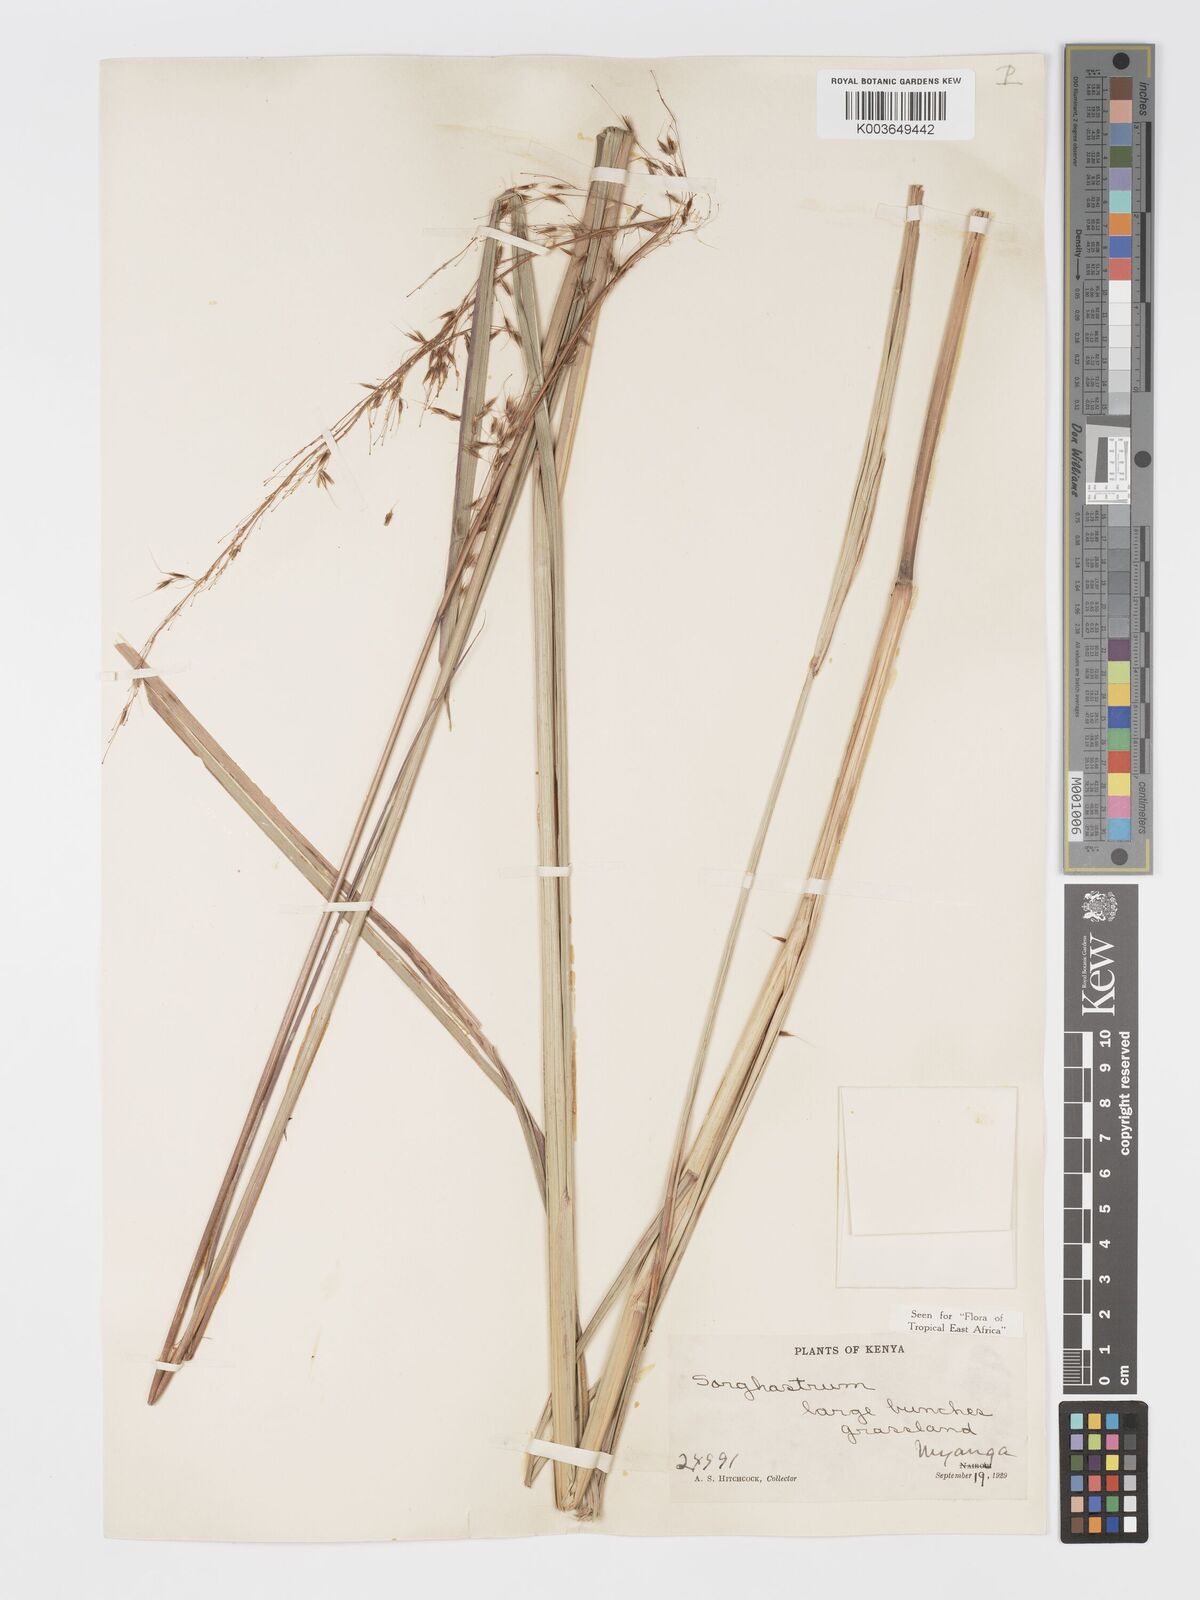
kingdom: Plantae
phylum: Tracheophyta
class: Liliopsida
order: Poales
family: Poaceae
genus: Sorghastrum
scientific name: Sorghastrum stipoides
